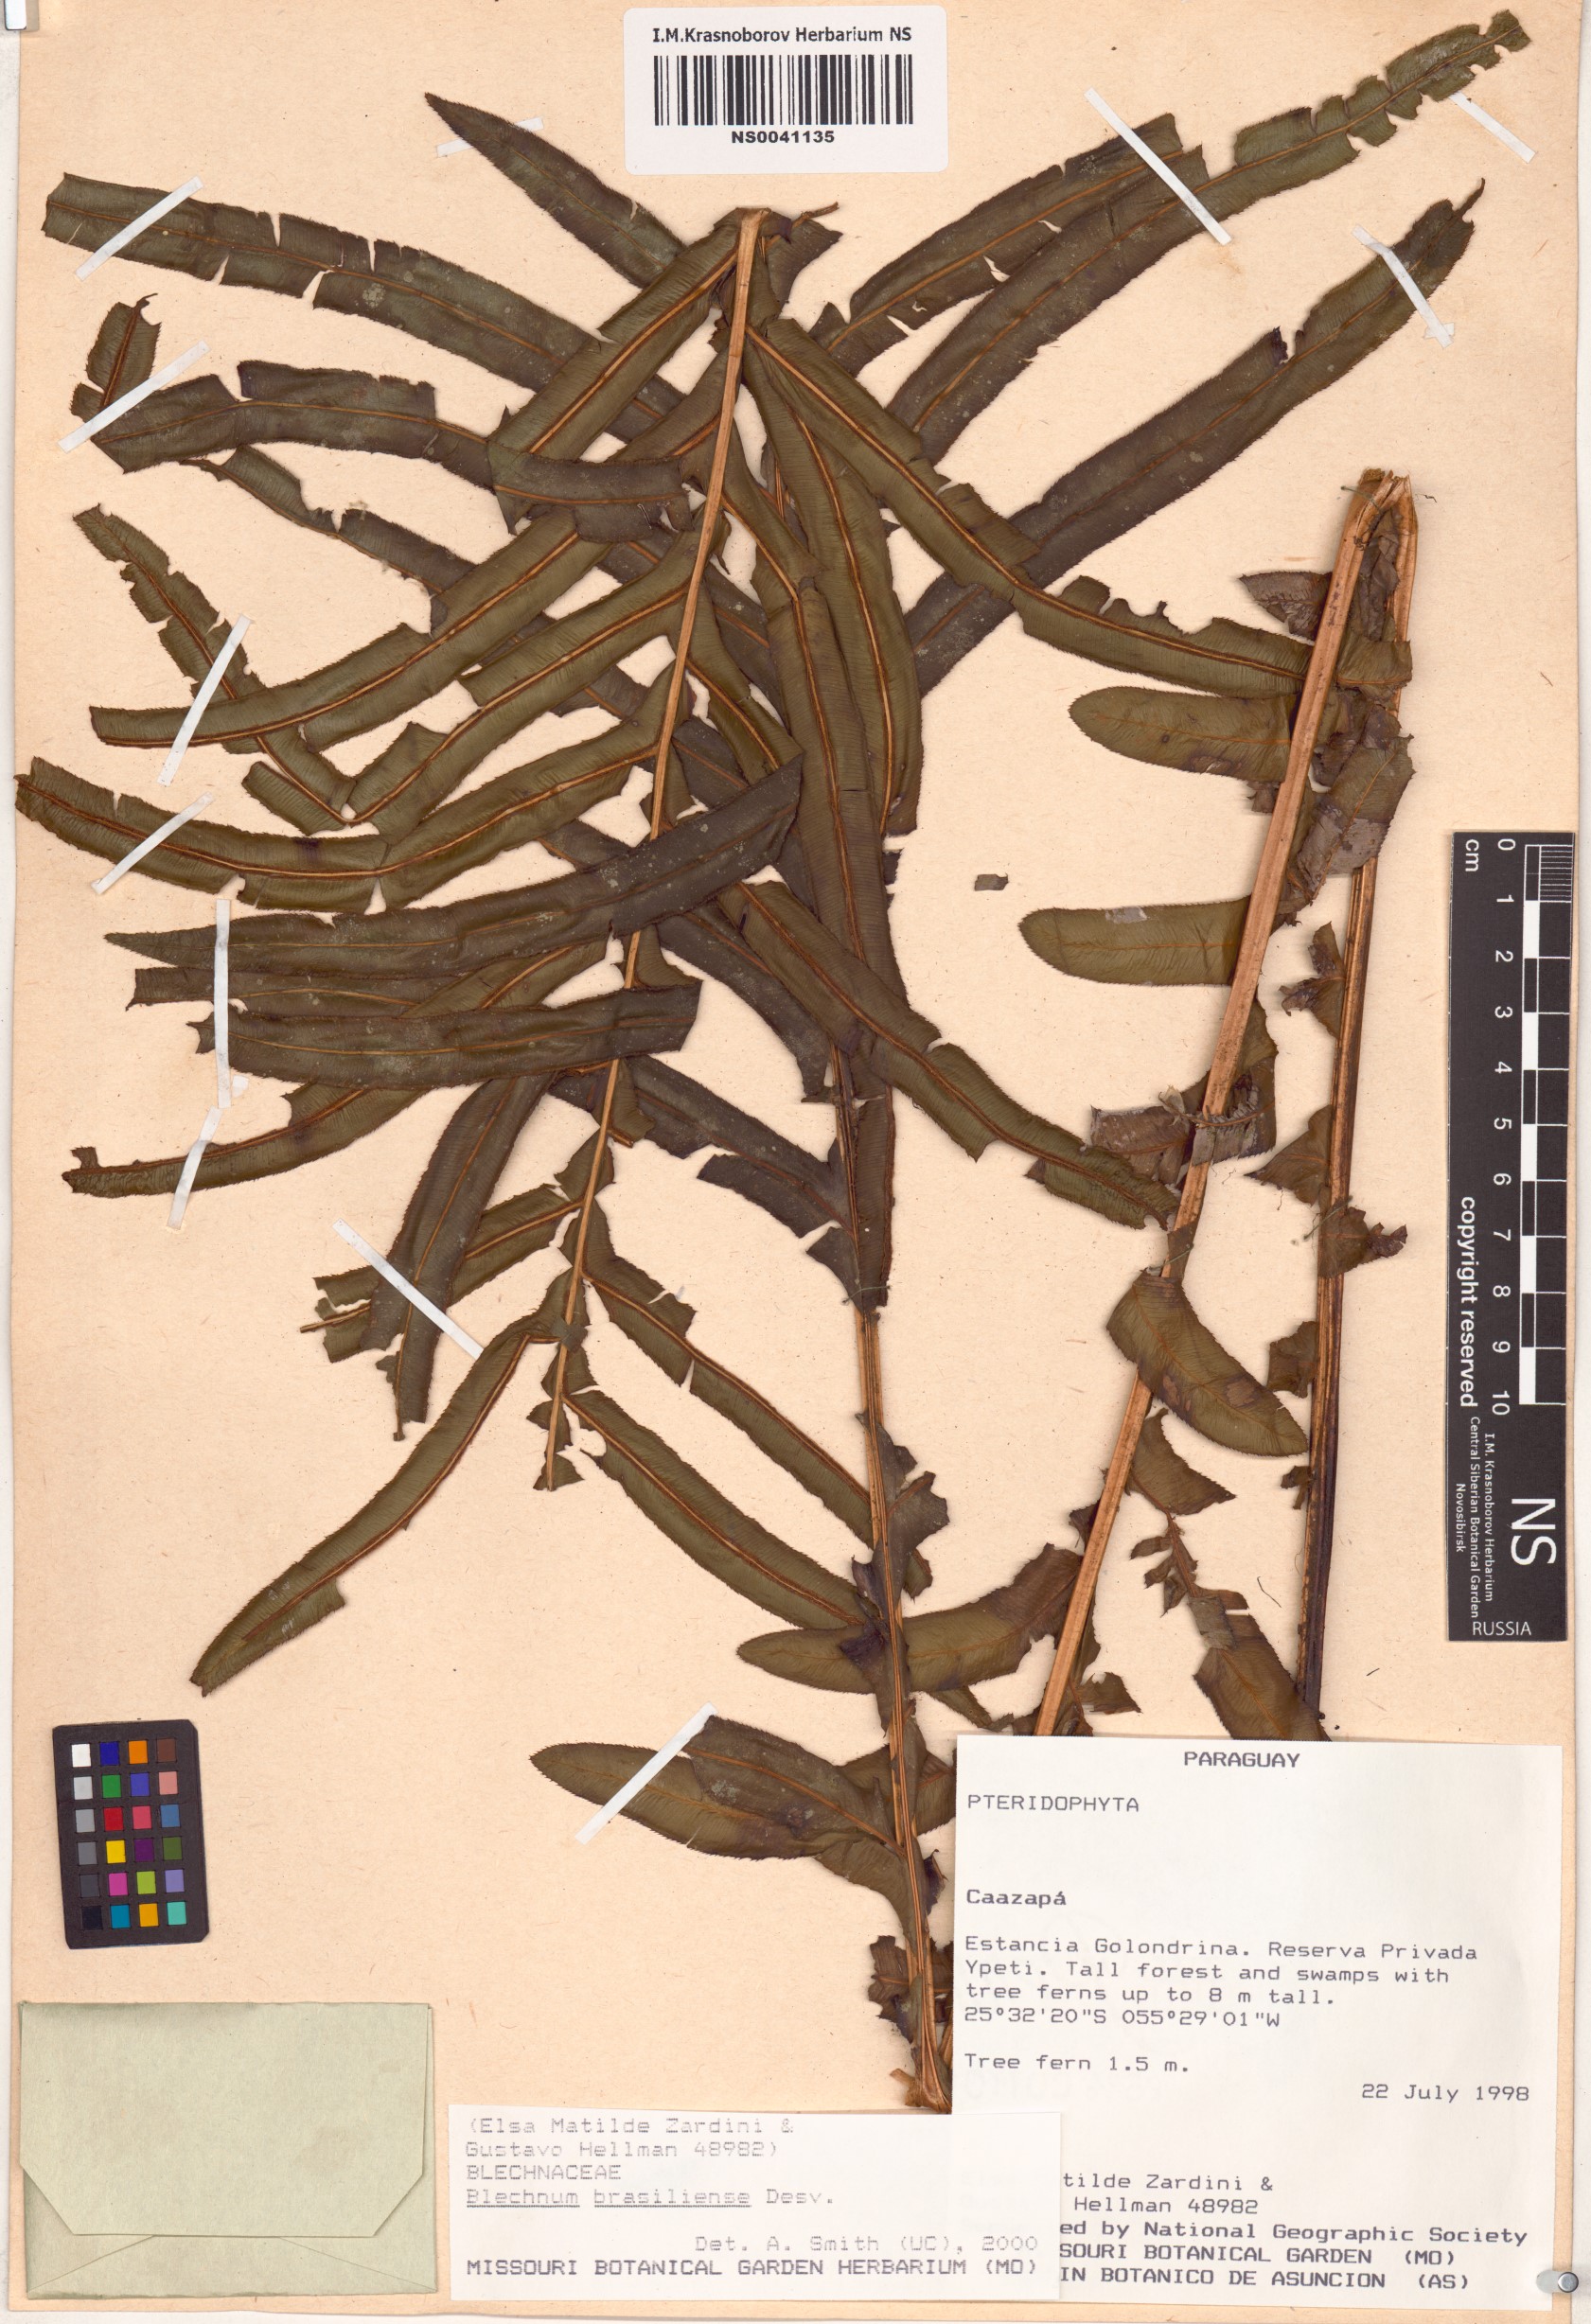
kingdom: Plantae
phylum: Tracheophyta
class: Polypodiopsida
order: Polypodiales
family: Blechnaceae
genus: Neoblechnum
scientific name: Neoblechnum brasiliense
